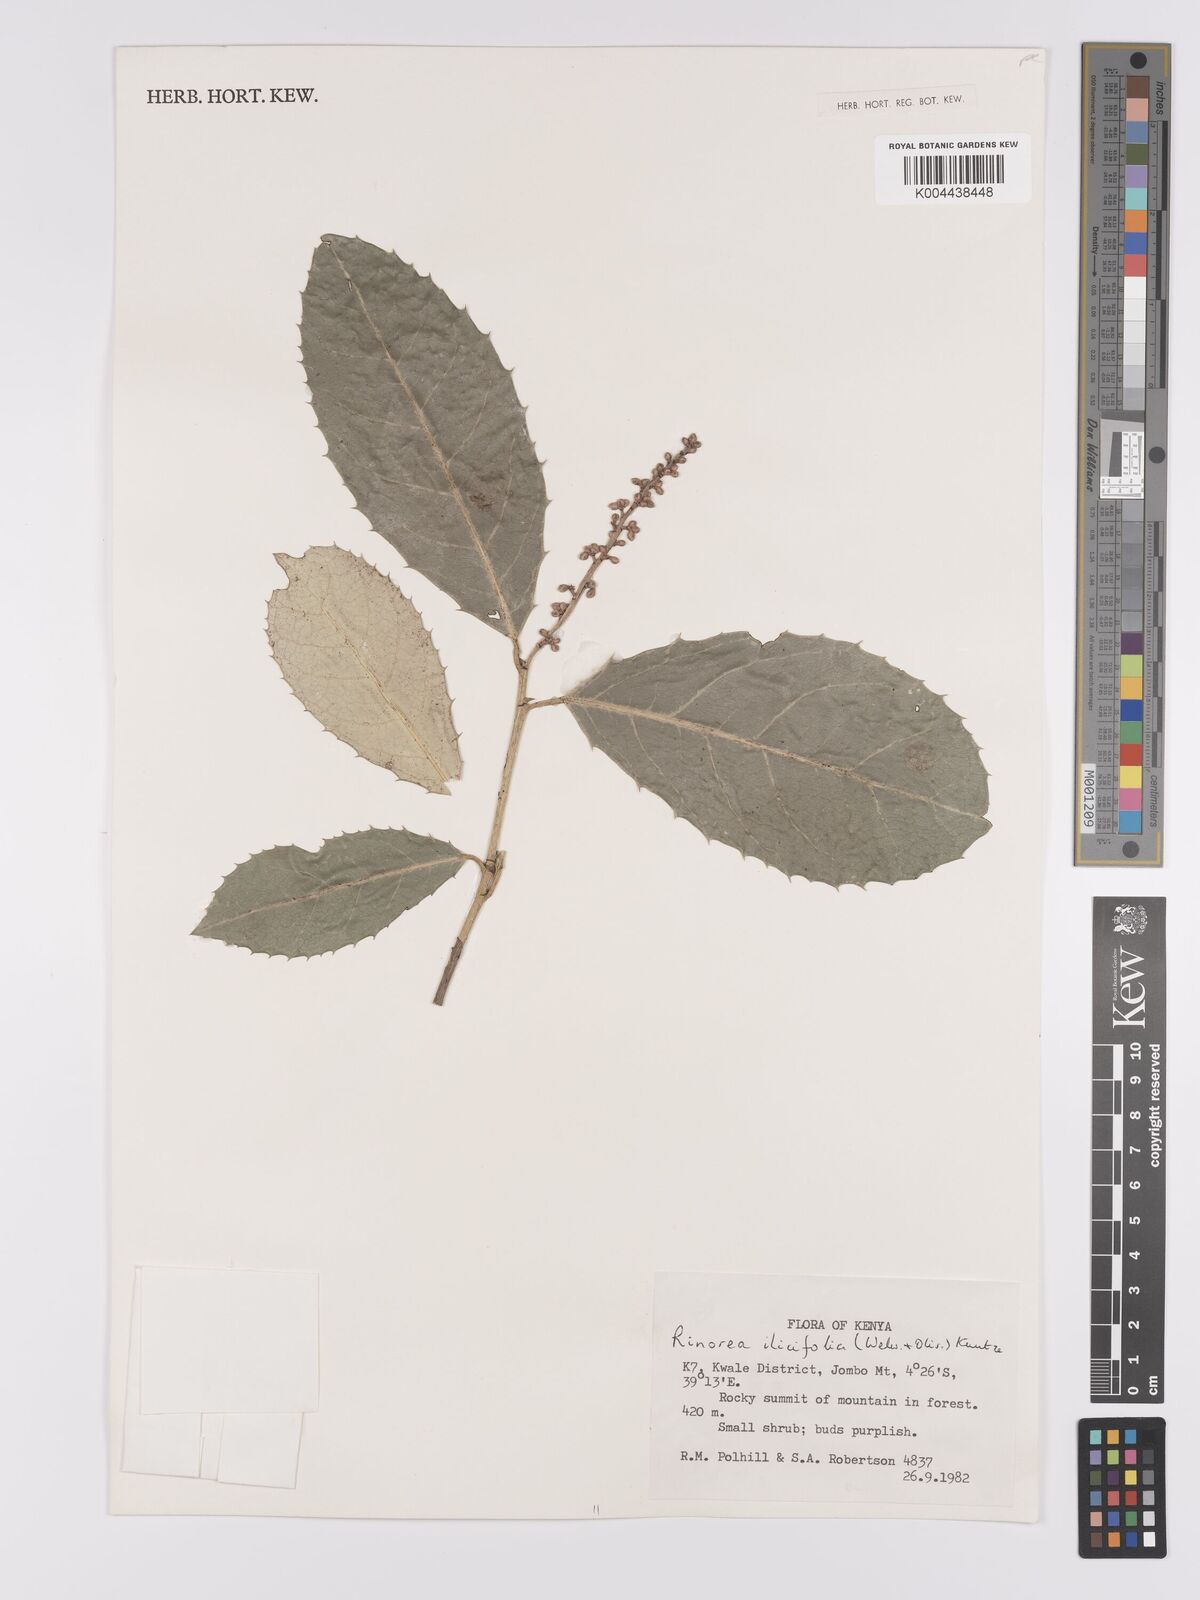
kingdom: Plantae
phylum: Tracheophyta
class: Magnoliopsida
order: Malpighiales
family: Violaceae
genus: Rinorea
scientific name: Rinorea ilicifolia
